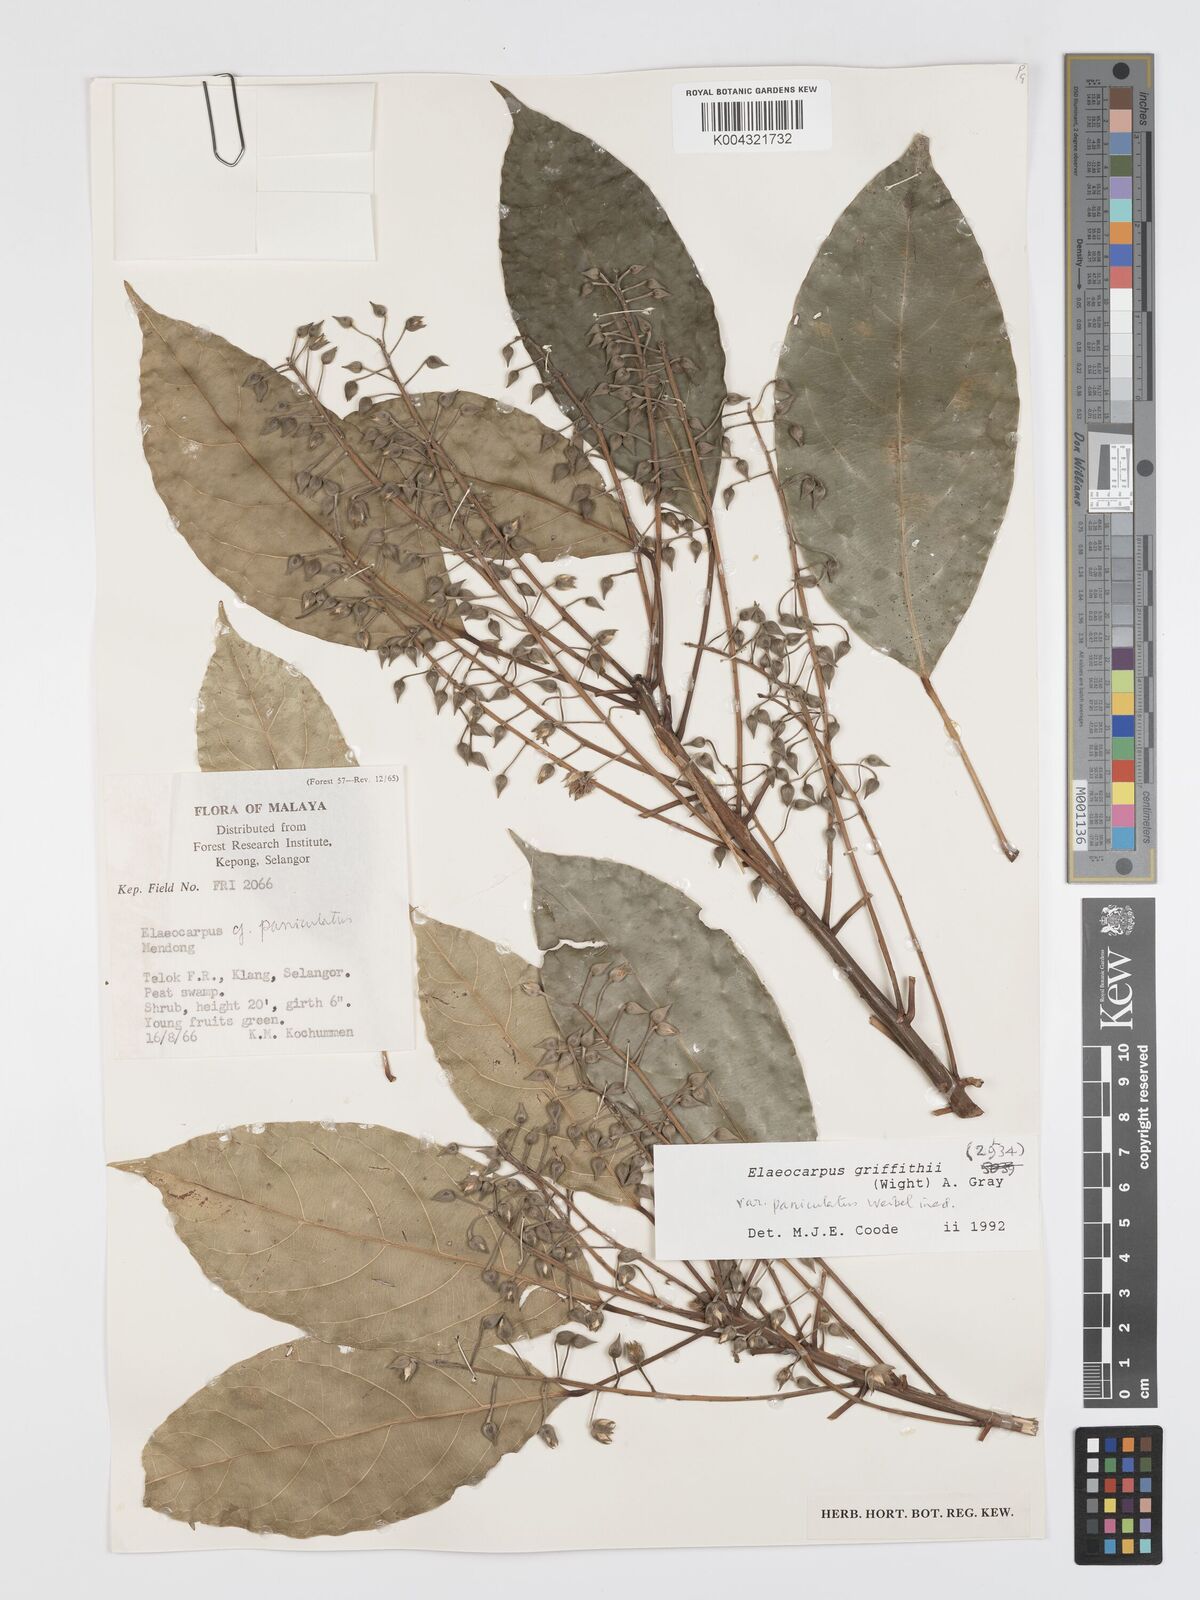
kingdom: Plantae
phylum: Tracheophyta
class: Magnoliopsida
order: Oxalidales
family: Elaeocarpaceae
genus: Elaeocarpus
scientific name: Elaeocarpus griffithii
